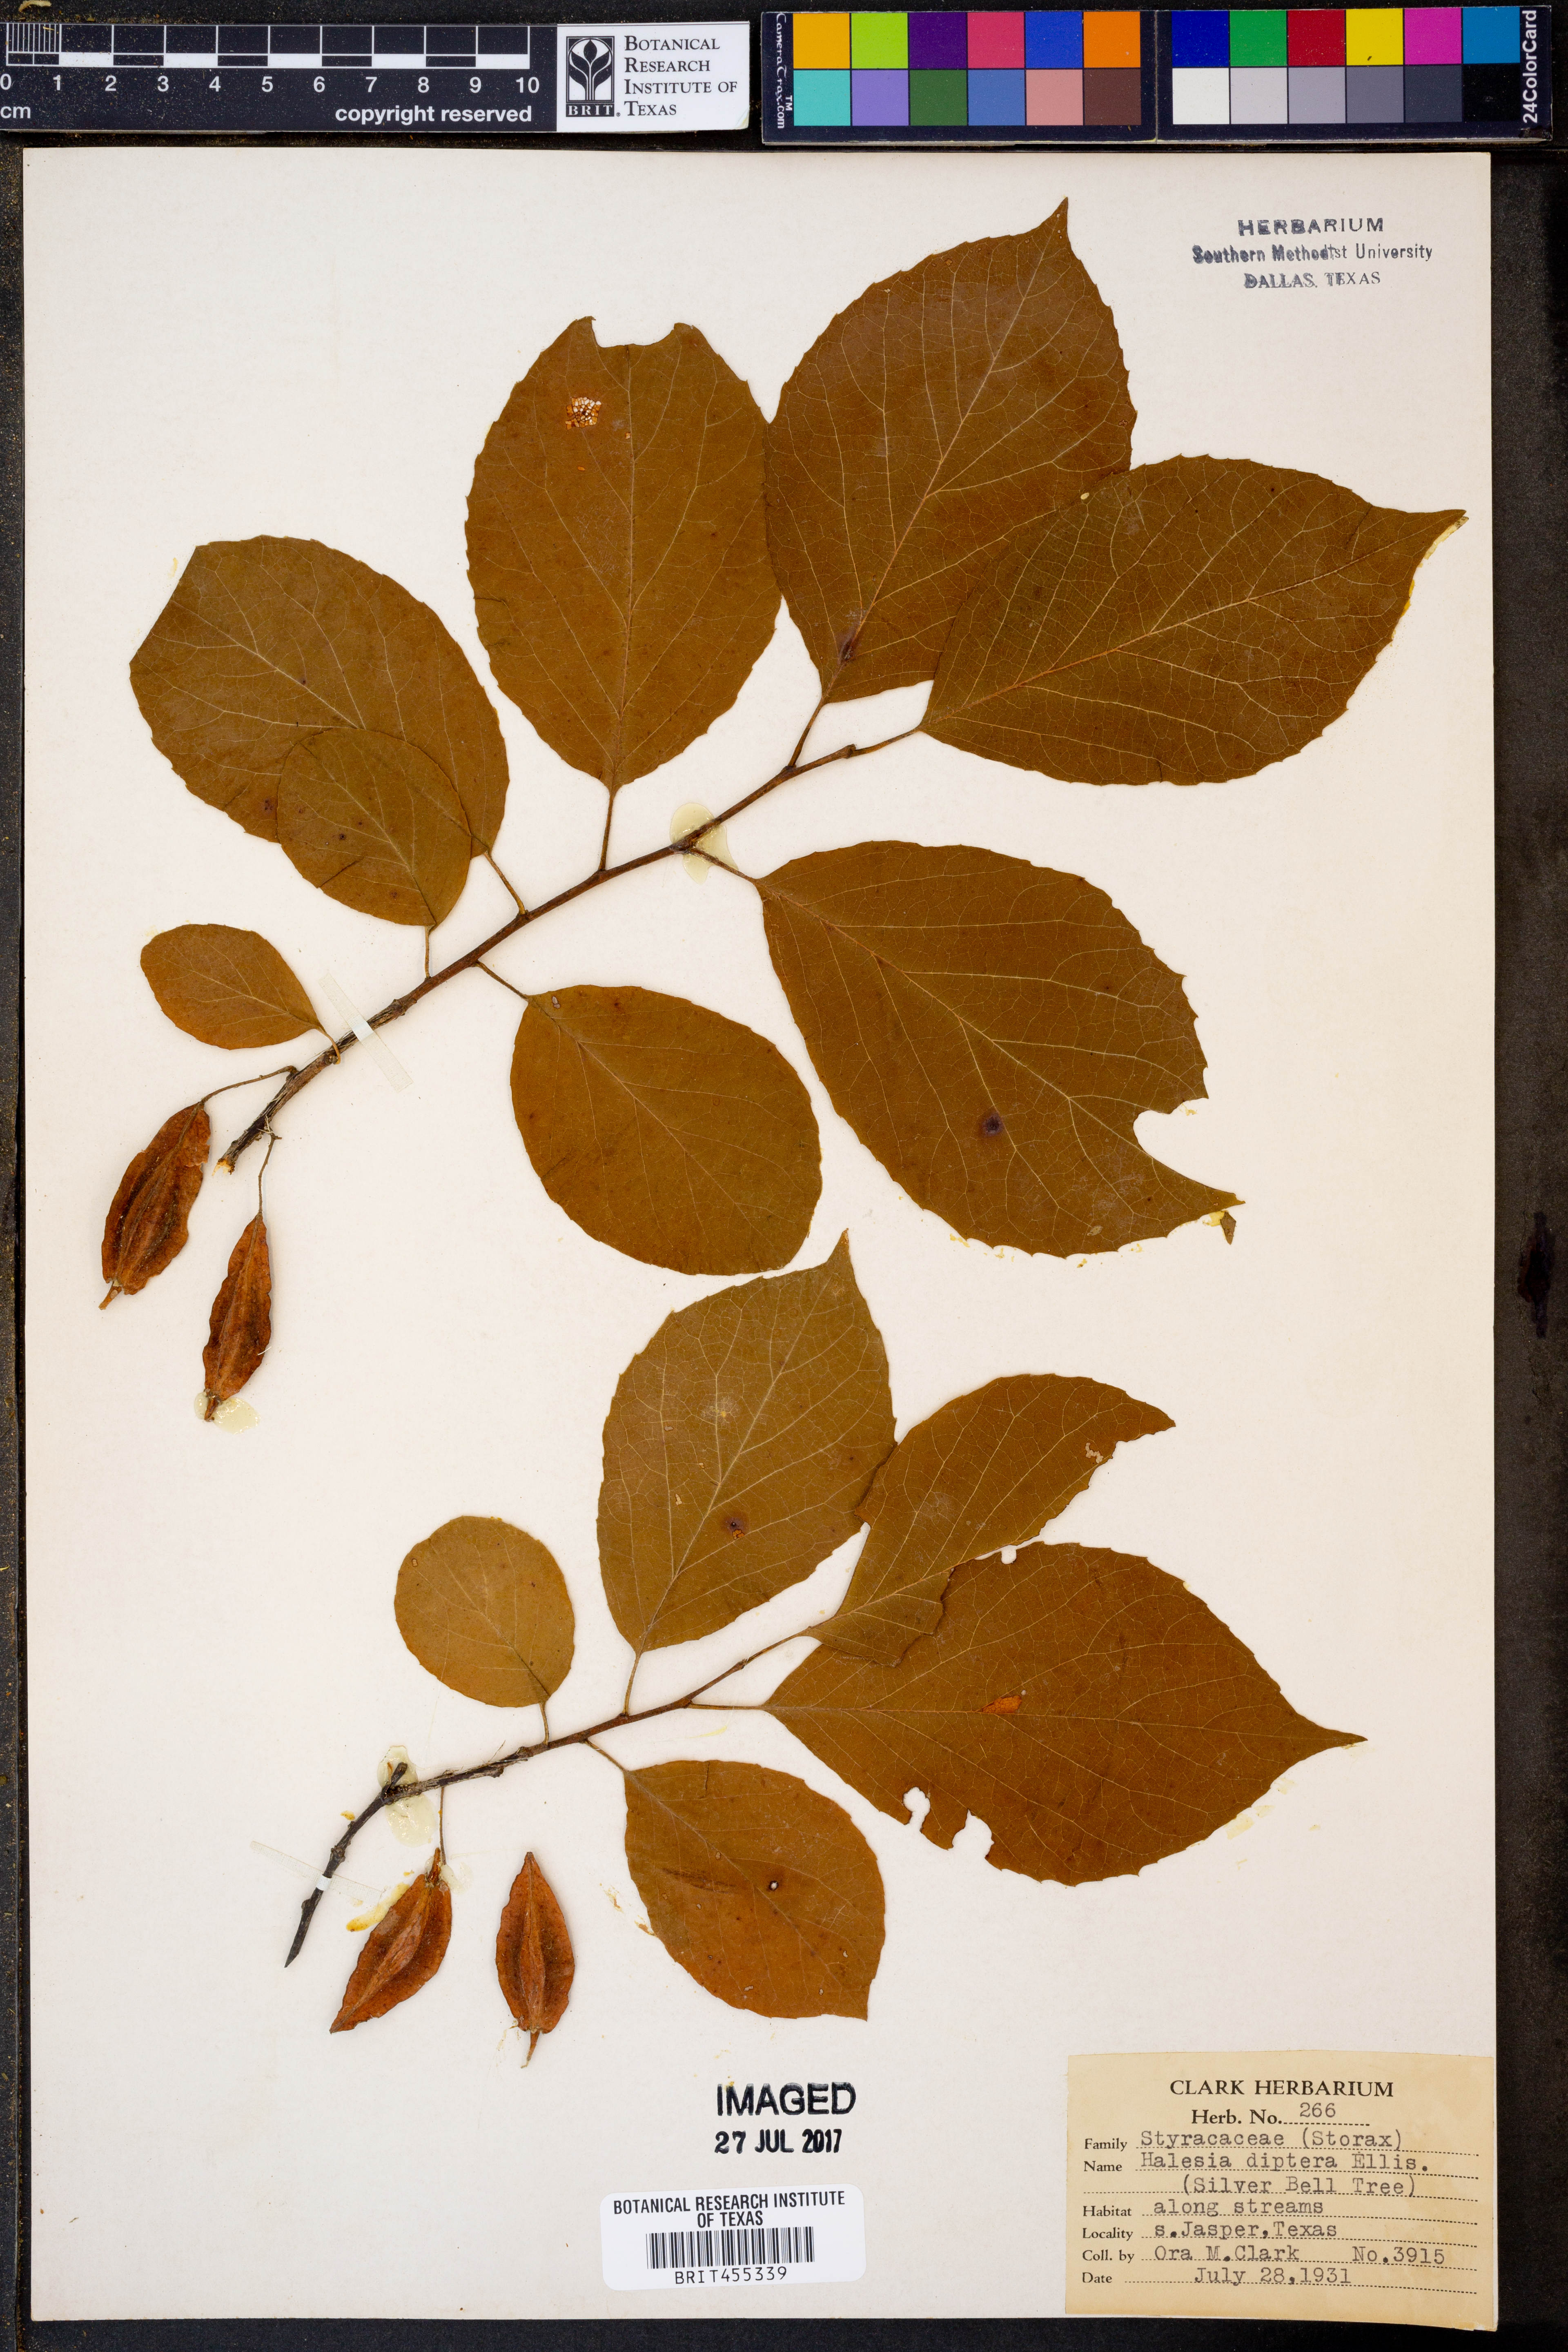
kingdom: Plantae
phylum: Tracheophyta
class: Magnoliopsida
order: Ericales
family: Styracaceae
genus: Halesia
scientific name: Halesia diptera
